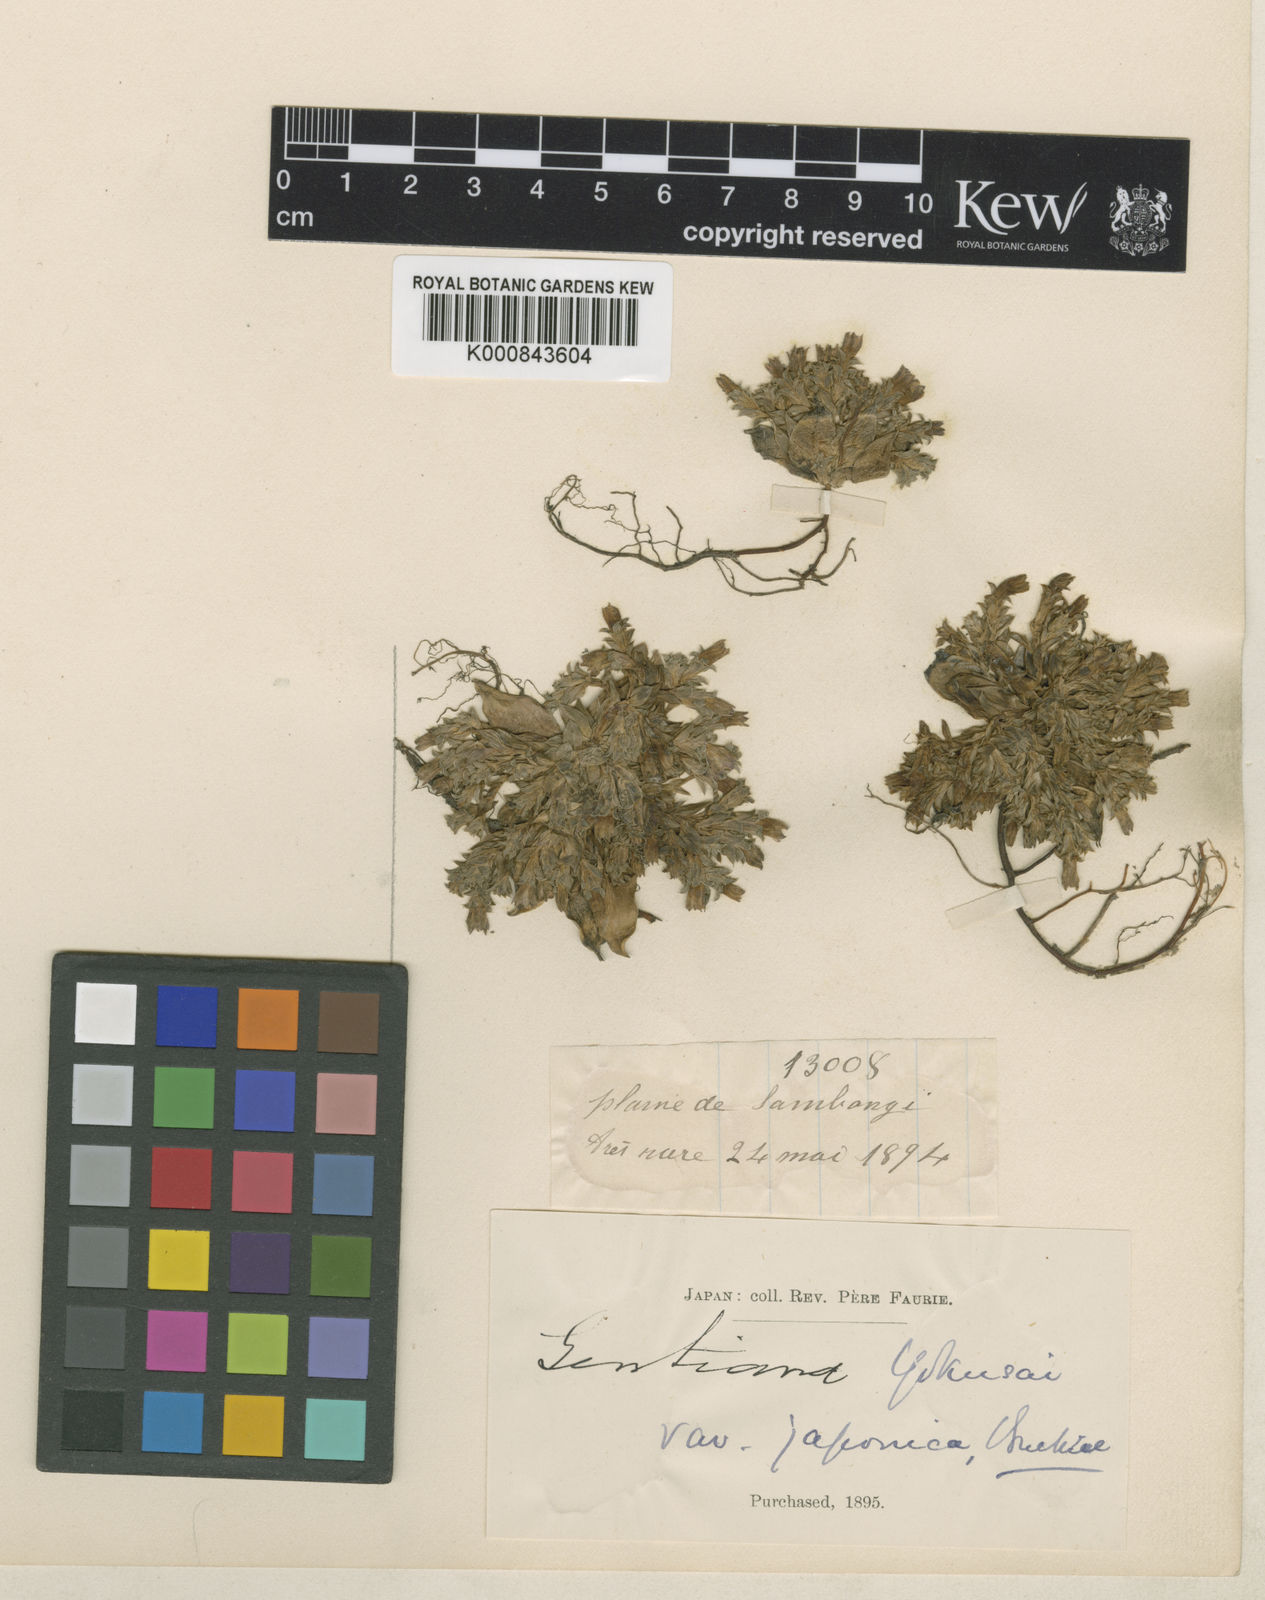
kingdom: Plantae
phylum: Tracheophyta
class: Magnoliopsida
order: Gentianales
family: Gentianaceae
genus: Gentiana
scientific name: Gentiana yokusai
